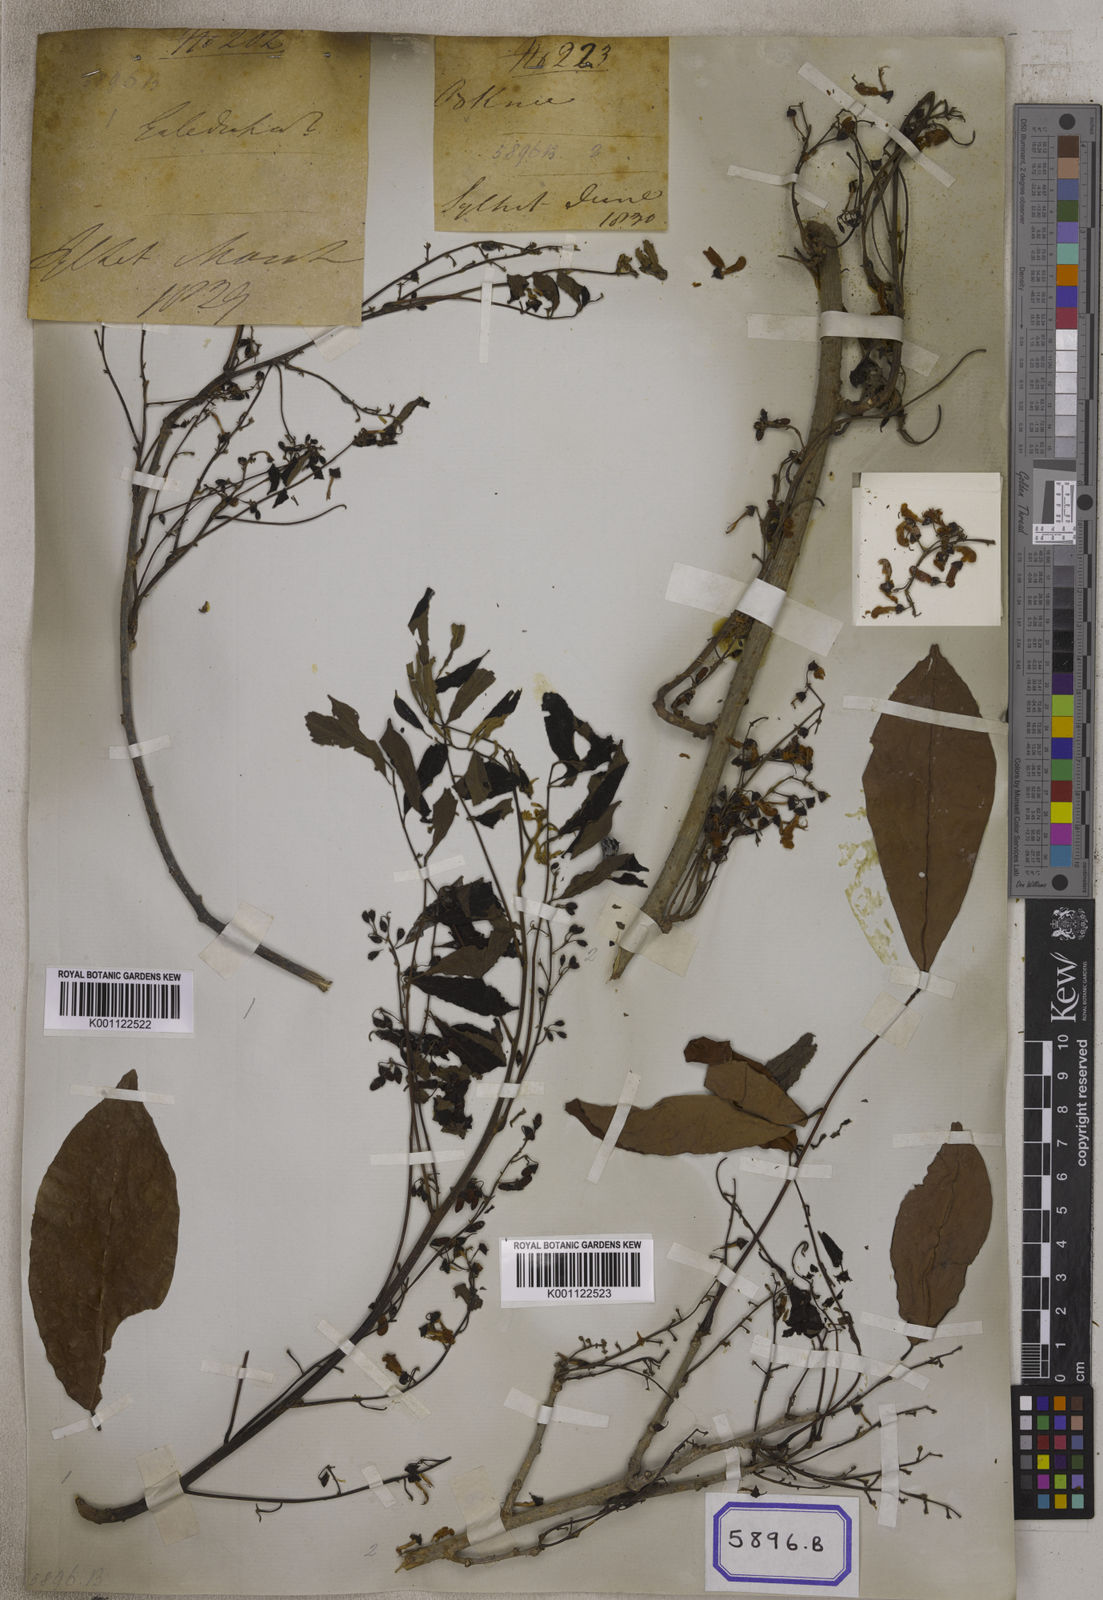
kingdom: Plantae
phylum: Tracheophyta
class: Magnoliopsida
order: Fabales
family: Fabaceae
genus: Pongamia
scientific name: Pongamia
